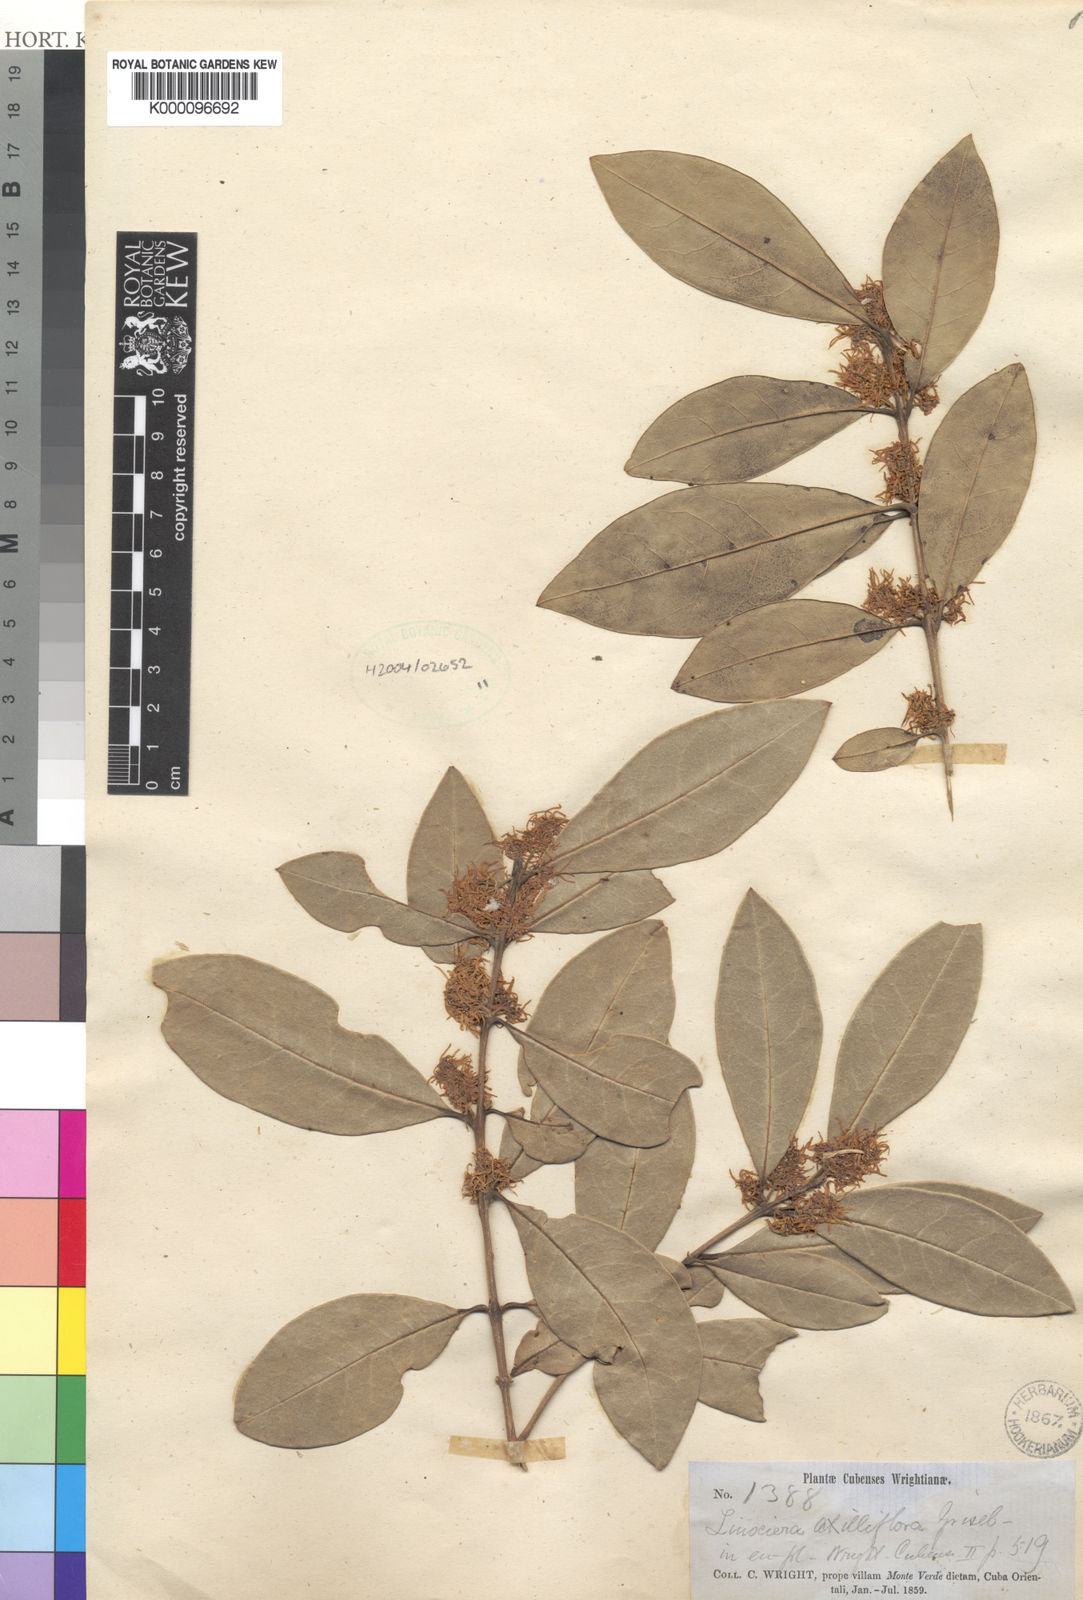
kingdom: Plantae
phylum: Tracheophyta
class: Magnoliopsida
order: Lamiales
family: Oleaceae
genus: Chionanthus
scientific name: Chionanthus axilliflorus
